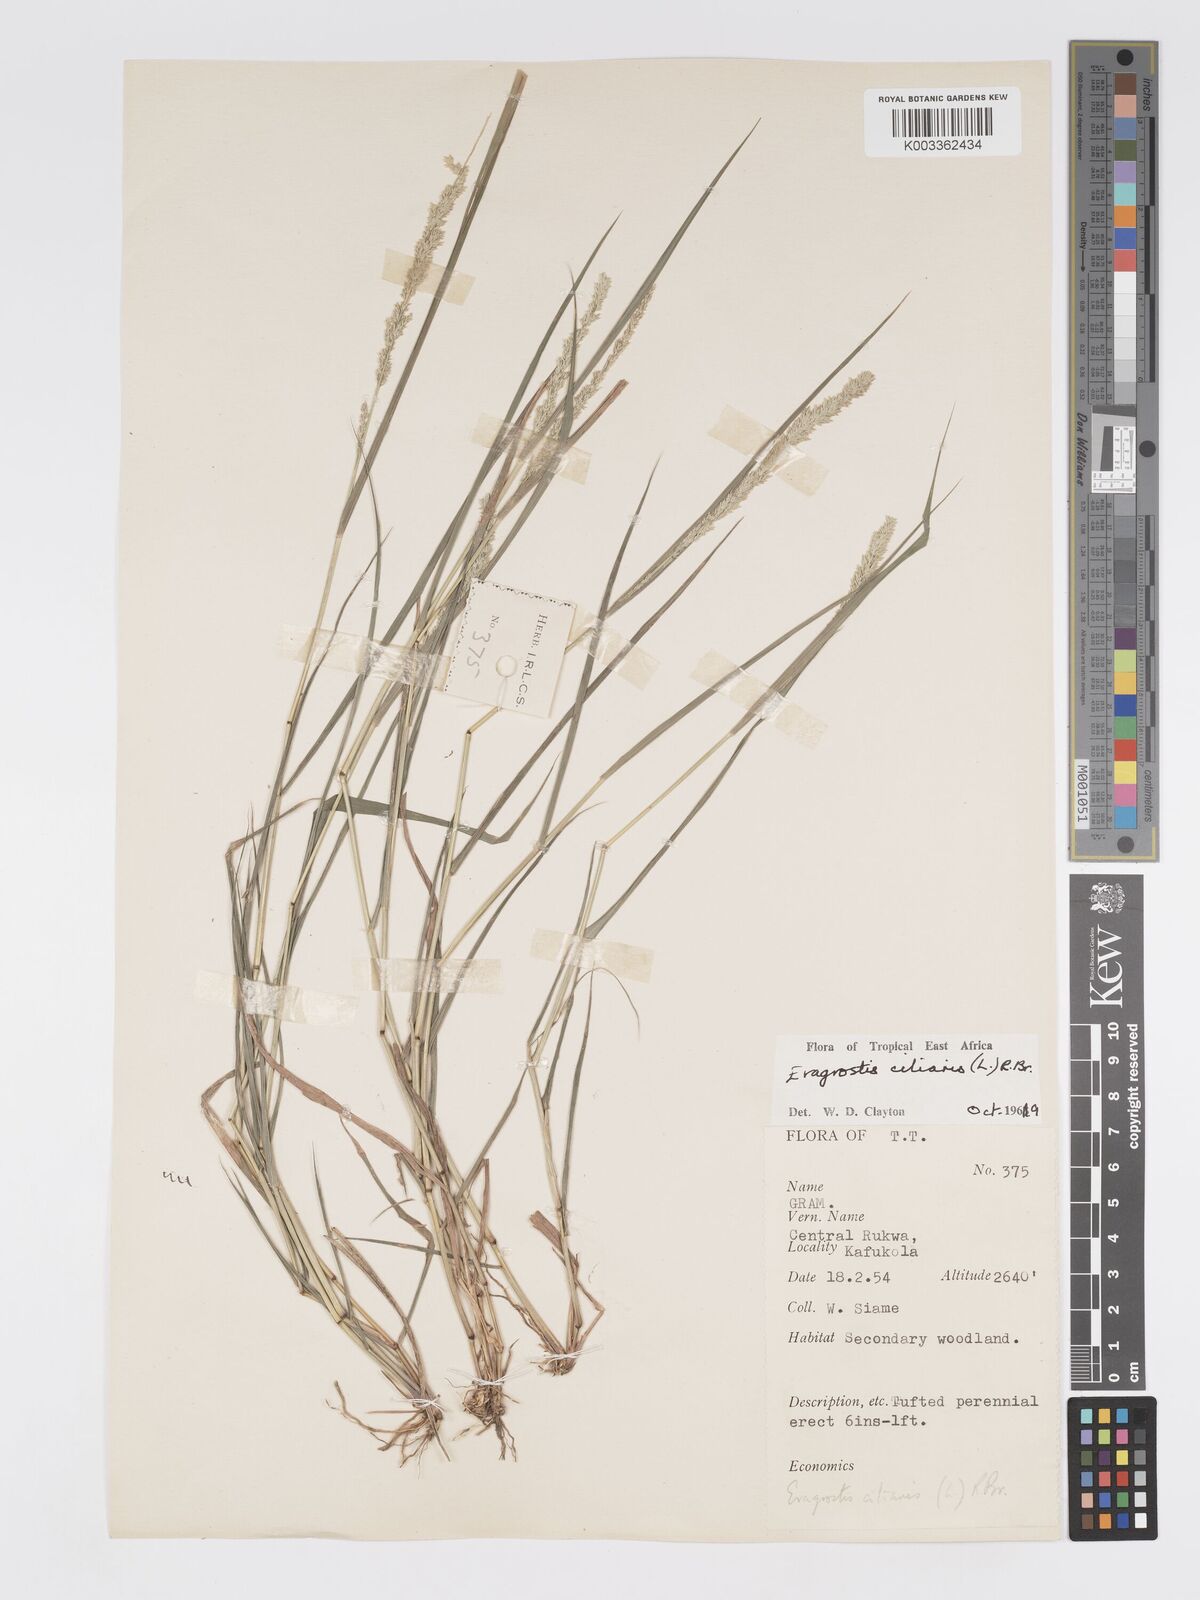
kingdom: Plantae
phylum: Tracheophyta
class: Liliopsida
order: Poales
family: Poaceae
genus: Eragrostis
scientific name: Eragrostis ciliaris
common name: Gophertail lovegrass
